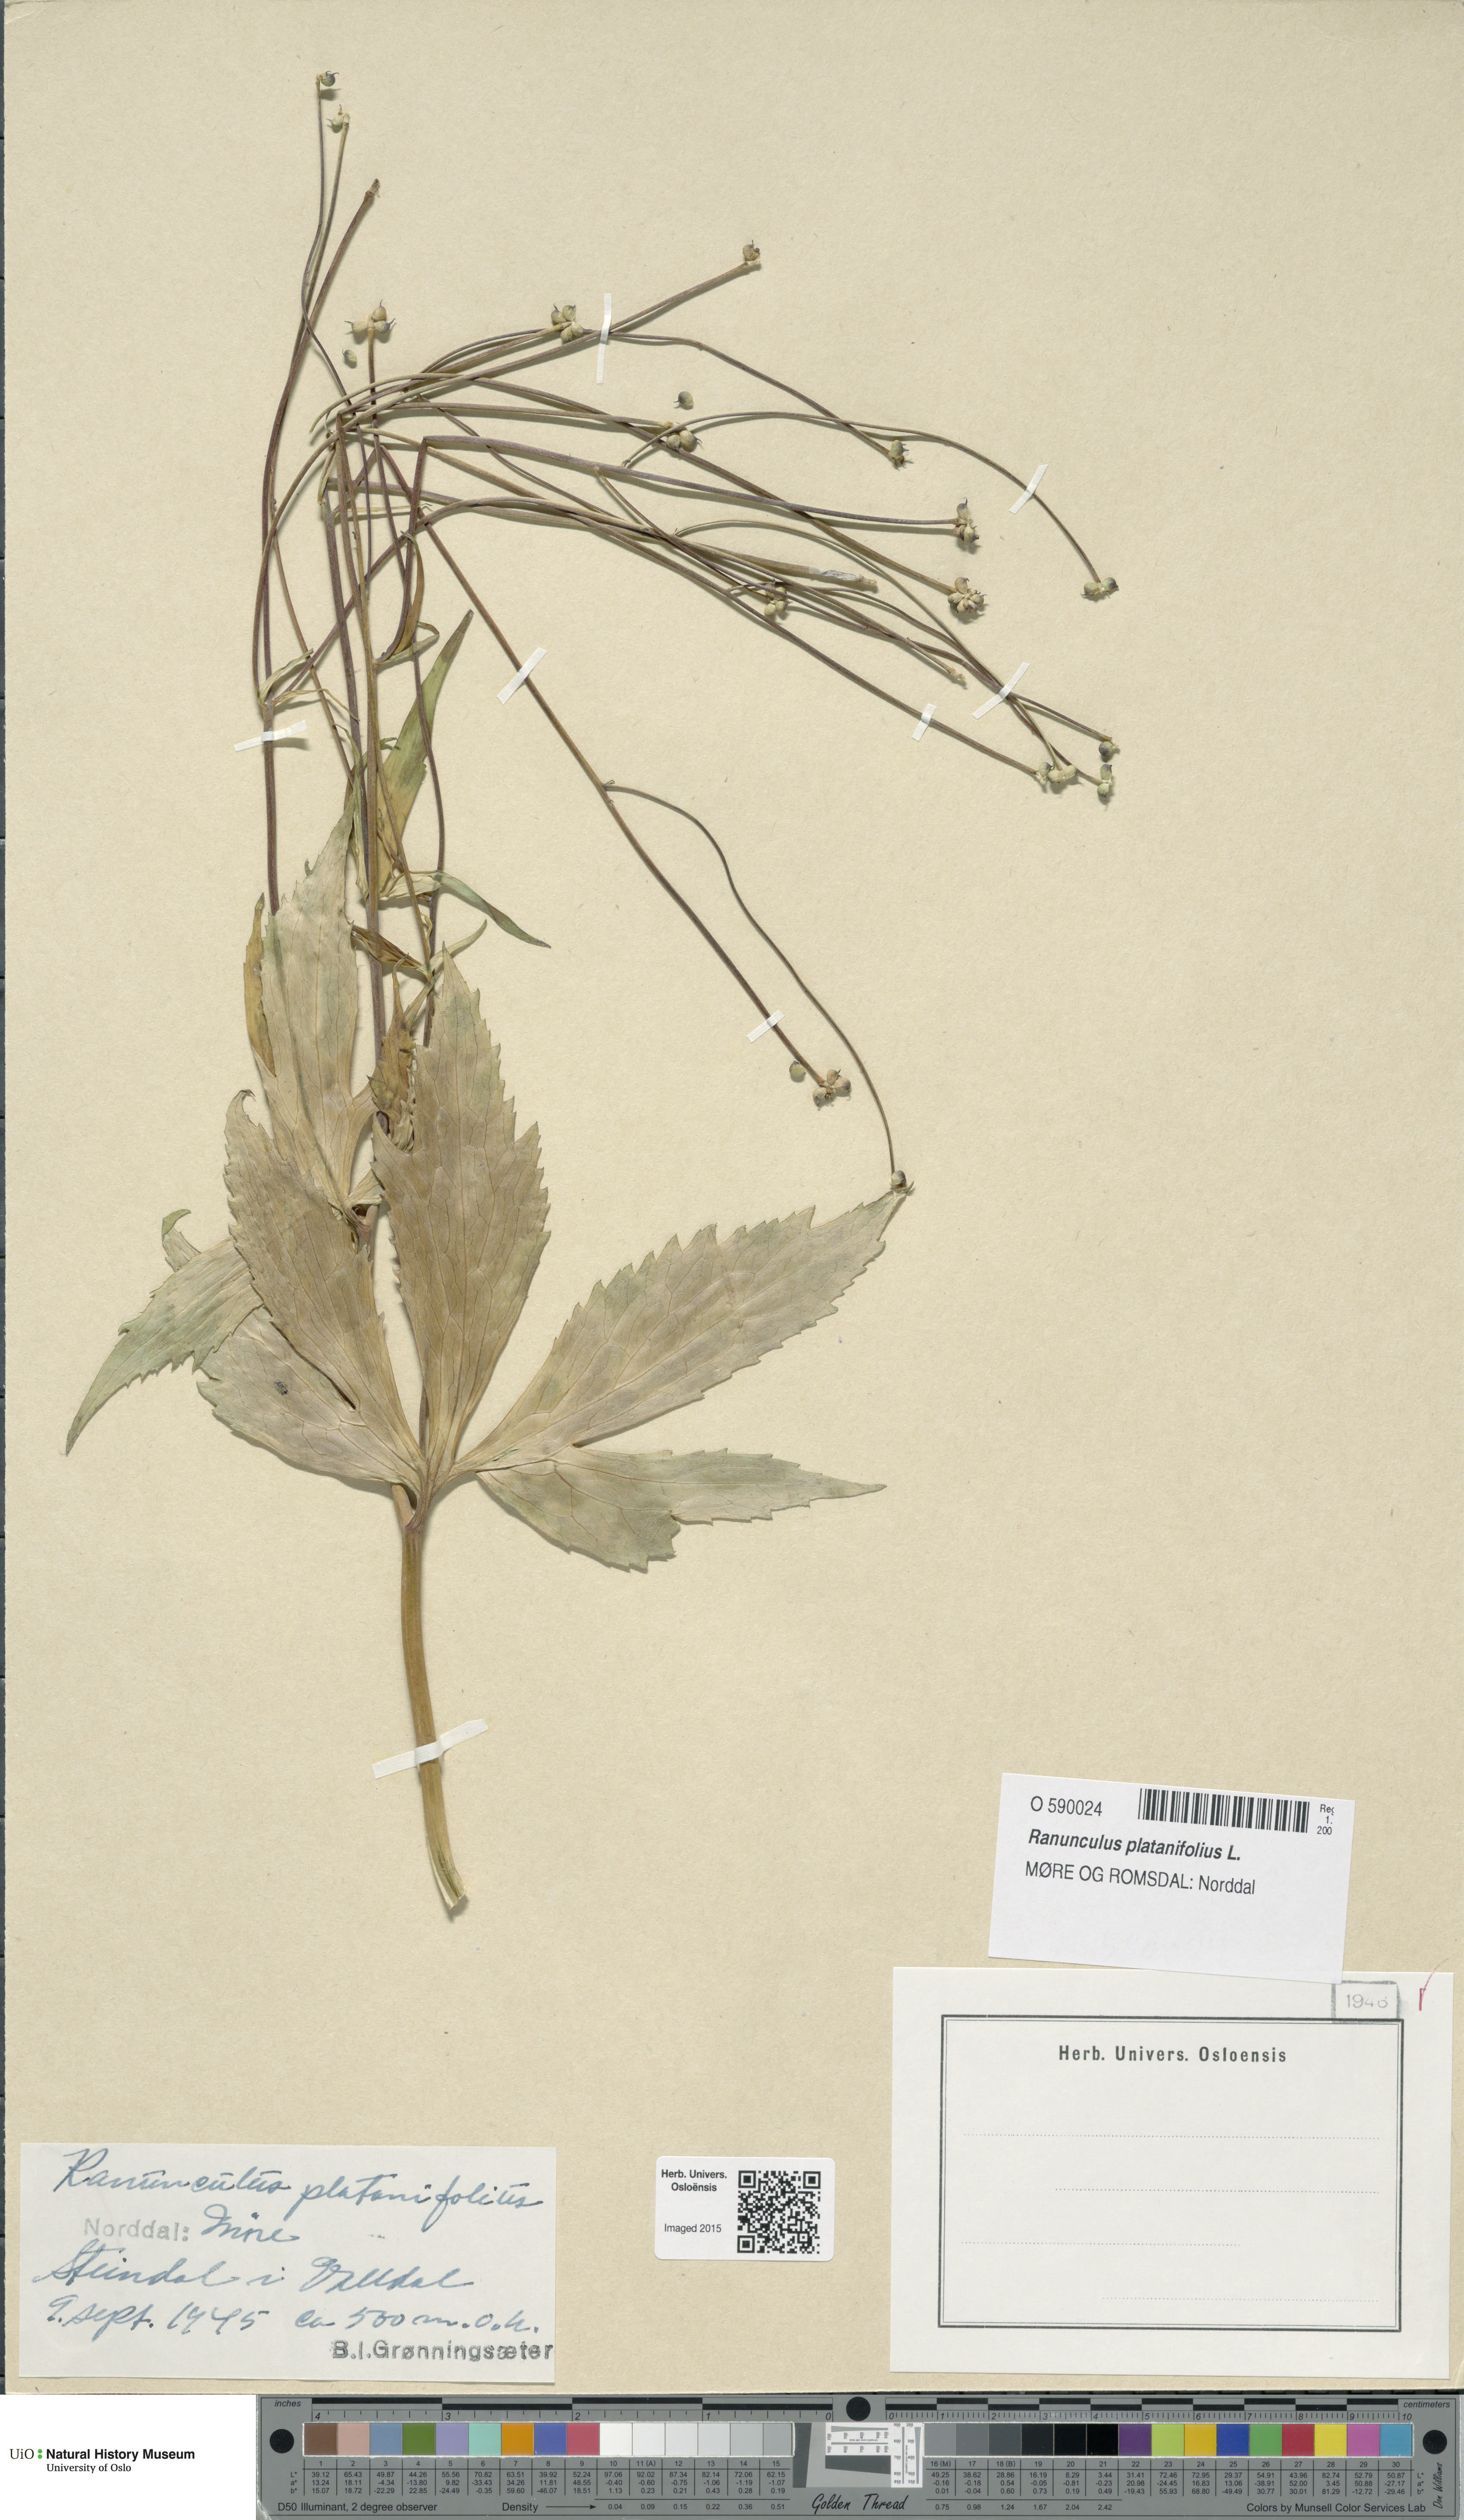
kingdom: Plantae
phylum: Tracheophyta
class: Magnoliopsida
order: Ranunculales
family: Ranunculaceae
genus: Ranunculus
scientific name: Ranunculus platanifolius
